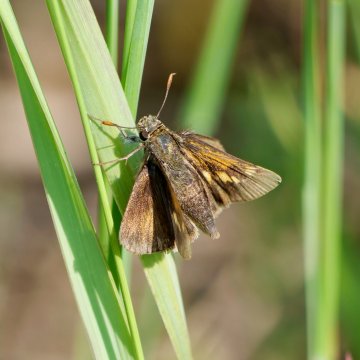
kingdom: Animalia
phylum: Arthropoda
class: Insecta
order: Lepidoptera
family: Hesperiidae
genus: Polites
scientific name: Polites themistocles
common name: Tawny-edged Skipper
